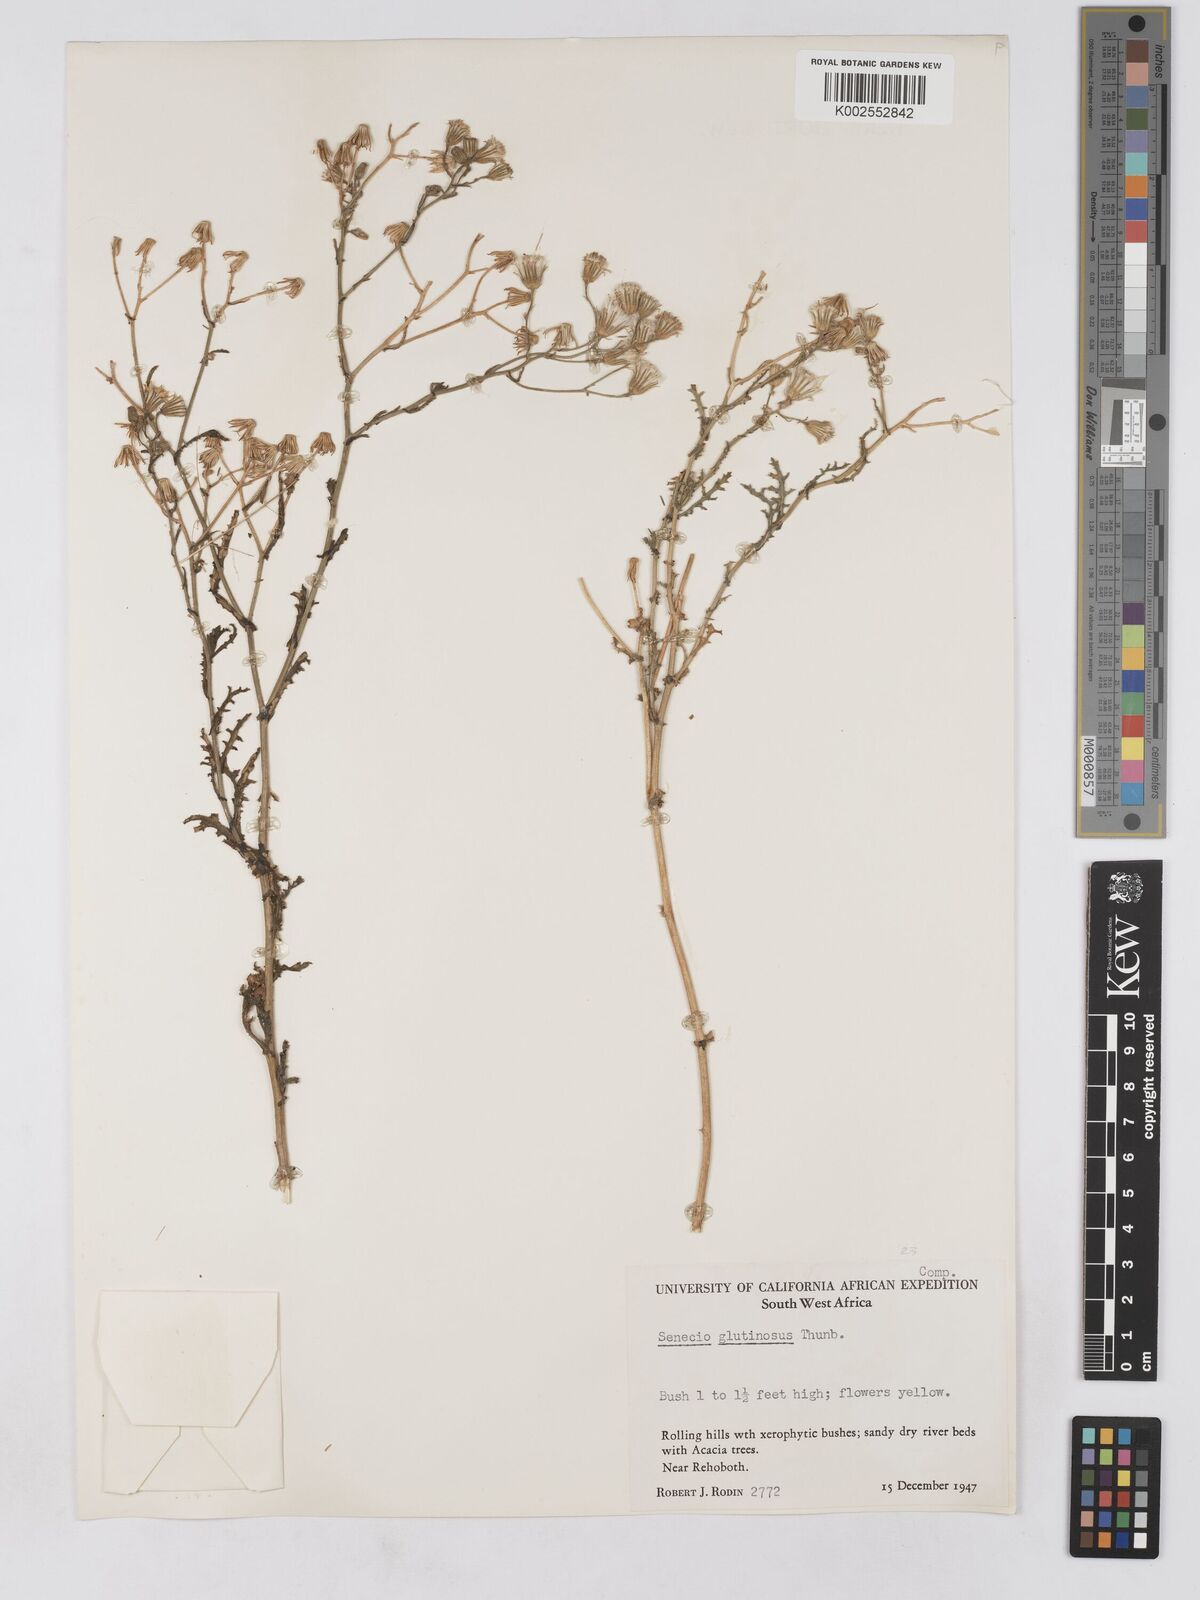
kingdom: Plantae
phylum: Tracheophyta
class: Magnoliopsida
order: Asterales
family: Asteraceae
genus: Senecio
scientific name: Senecio consanguineus
